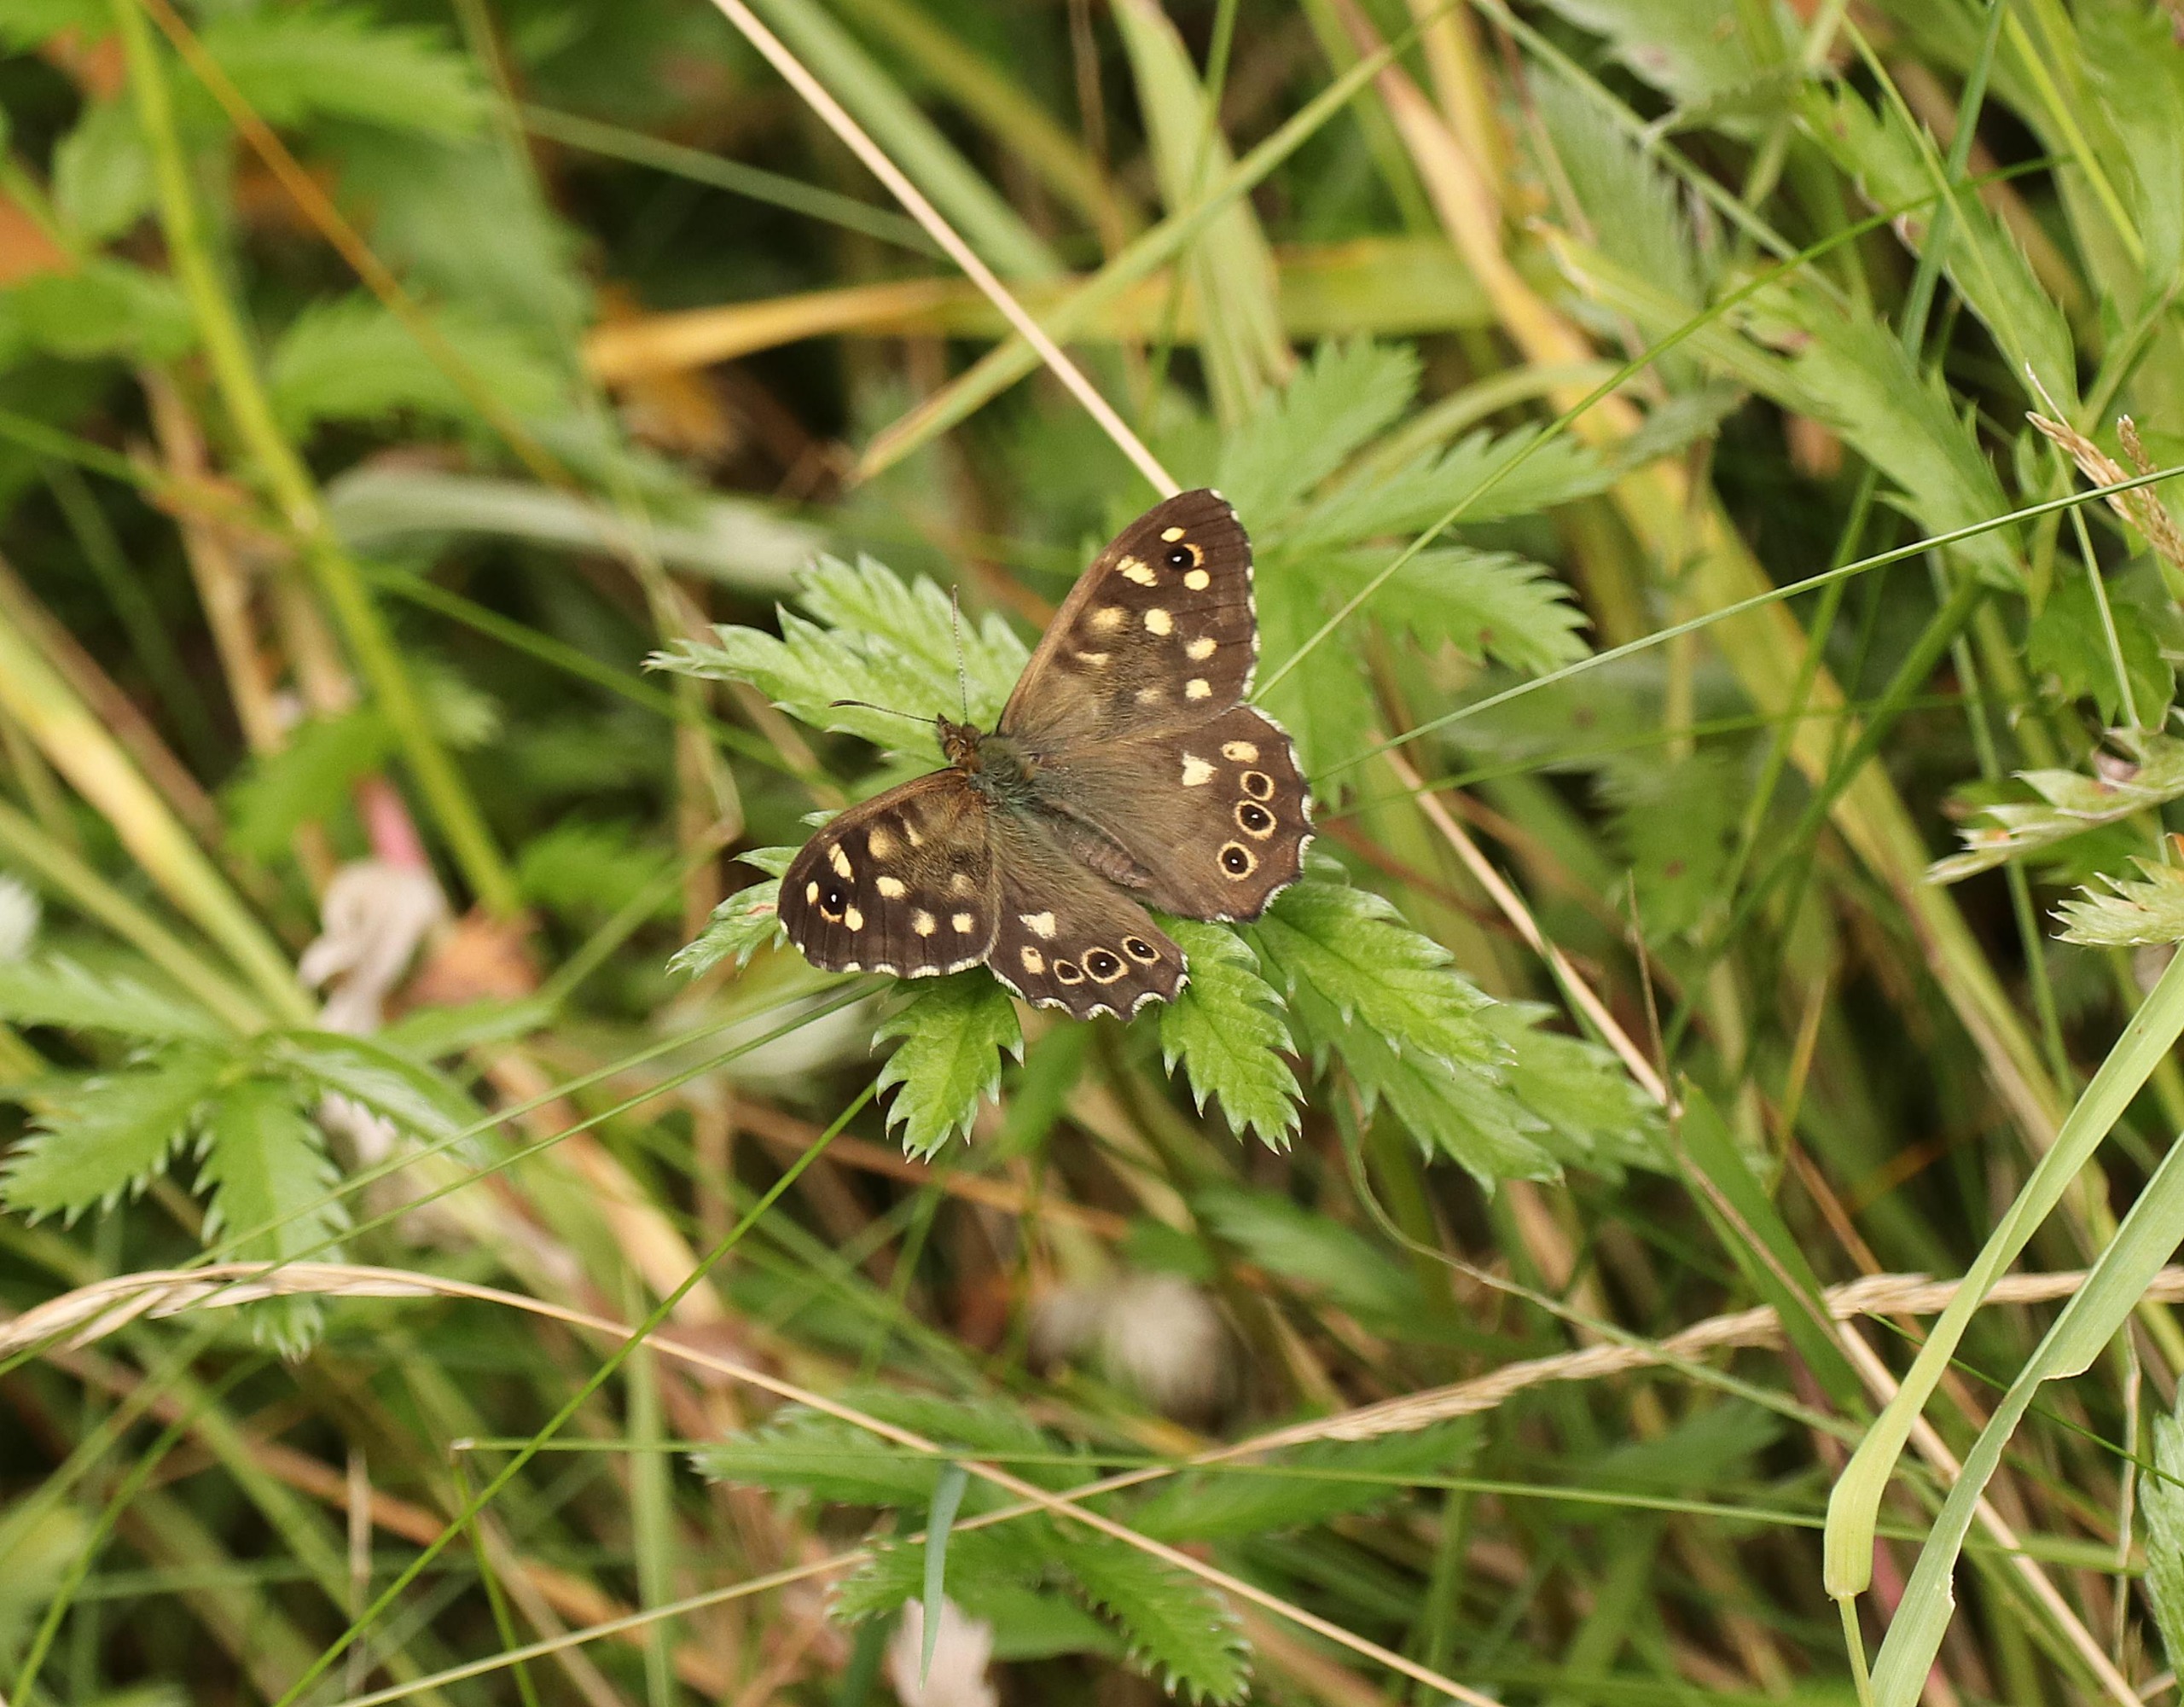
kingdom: Animalia
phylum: Arthropoda
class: Insecta
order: Lepidoptera
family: Nymphalidae
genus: Pararge
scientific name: Pararge aegeria
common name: Skovrandøje
